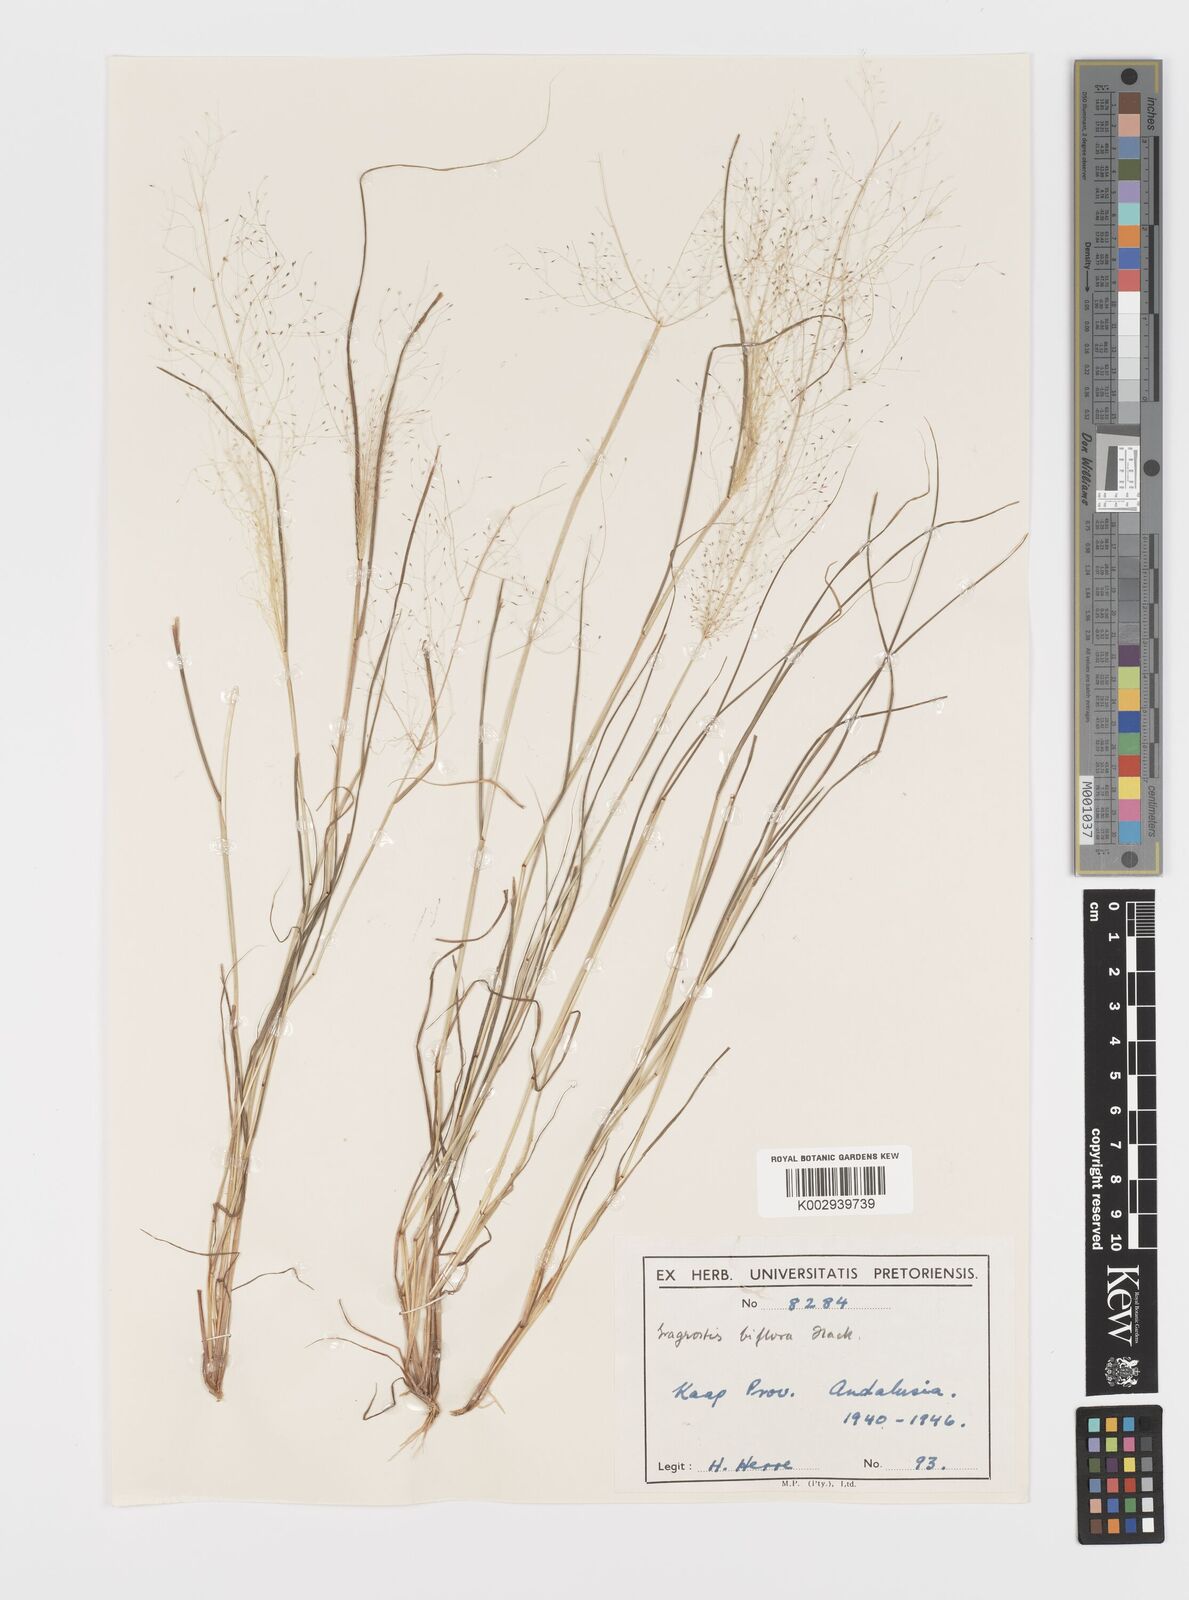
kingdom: Plantae
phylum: Tracheophyta
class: Liliopsida
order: Poales
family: Poaceae
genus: Eragrostis
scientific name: Eragrostis biflora
